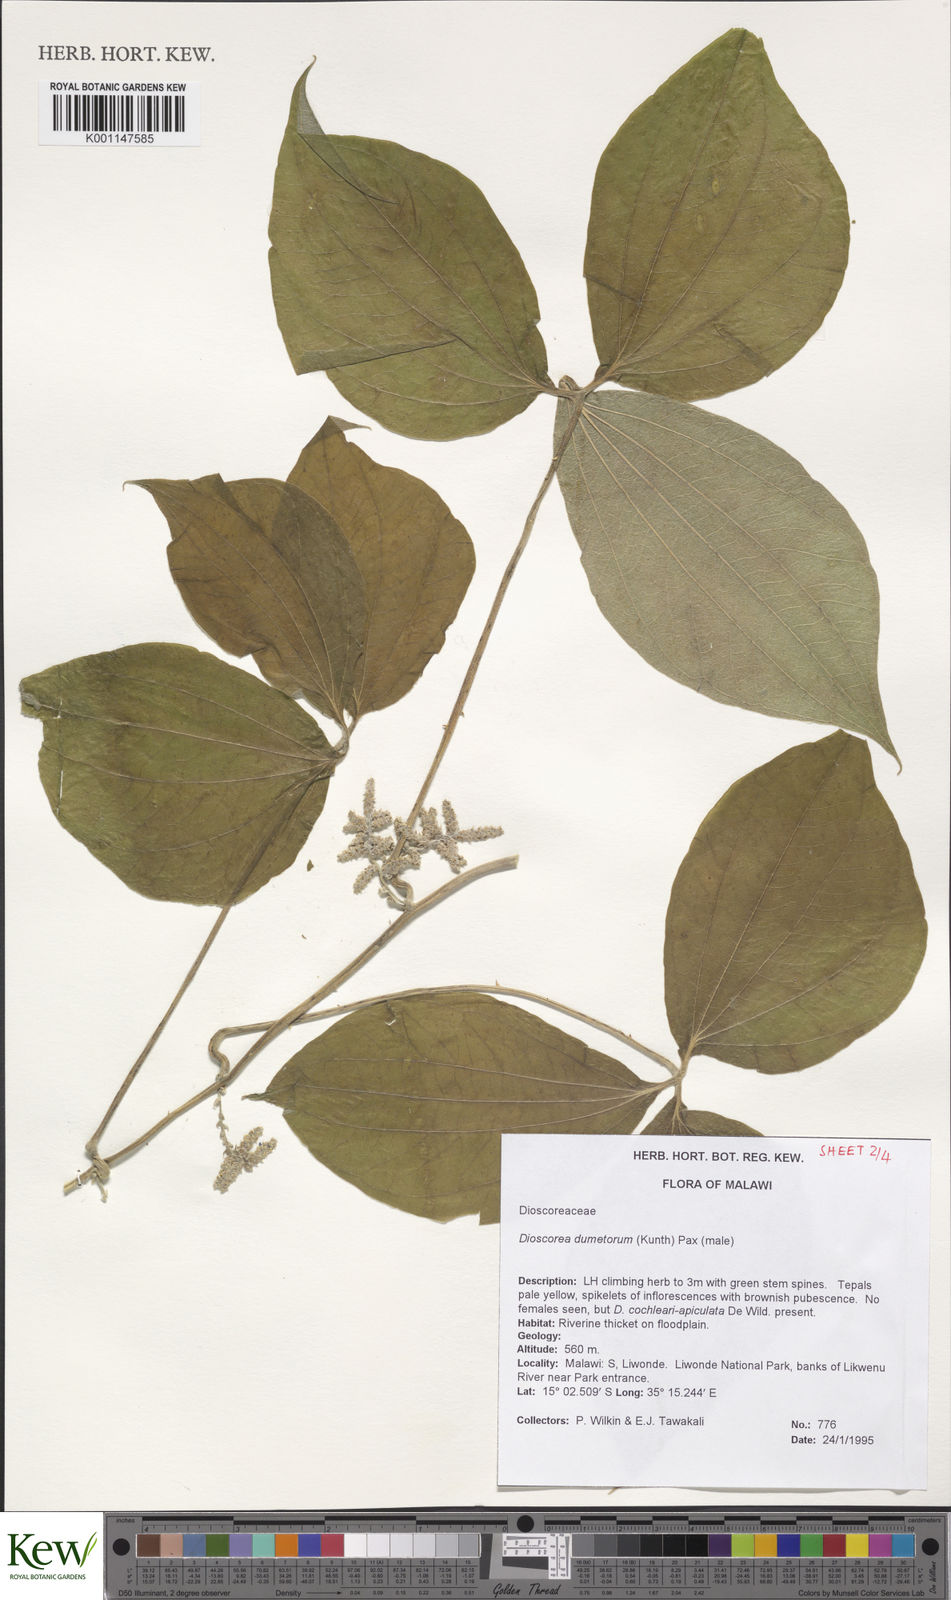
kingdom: Plantae
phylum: Tracheophyta
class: Liliopsida
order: Dioscoreales
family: Dioscoreaceae
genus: Dioscorea
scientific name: Dioscorea dumetorum
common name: African bitter yam
